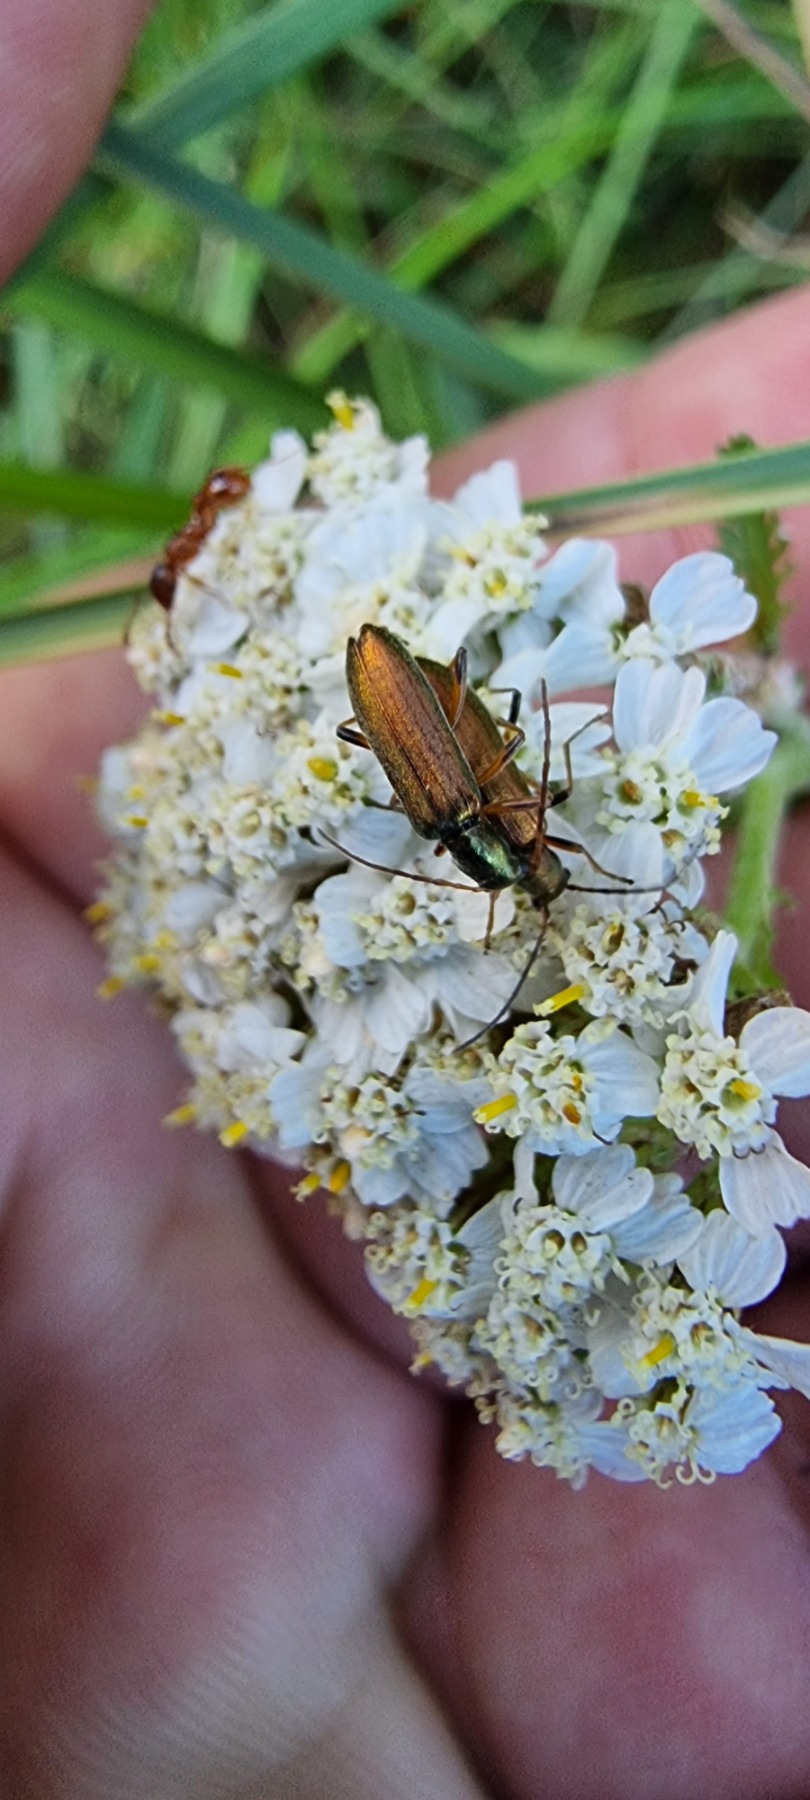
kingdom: Animalia
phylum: Arthropoda
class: Insecta
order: Coleoptera
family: Oedemeridae
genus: Chrysanthia
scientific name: Chrysanthia geniculata
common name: Grøn solbille
